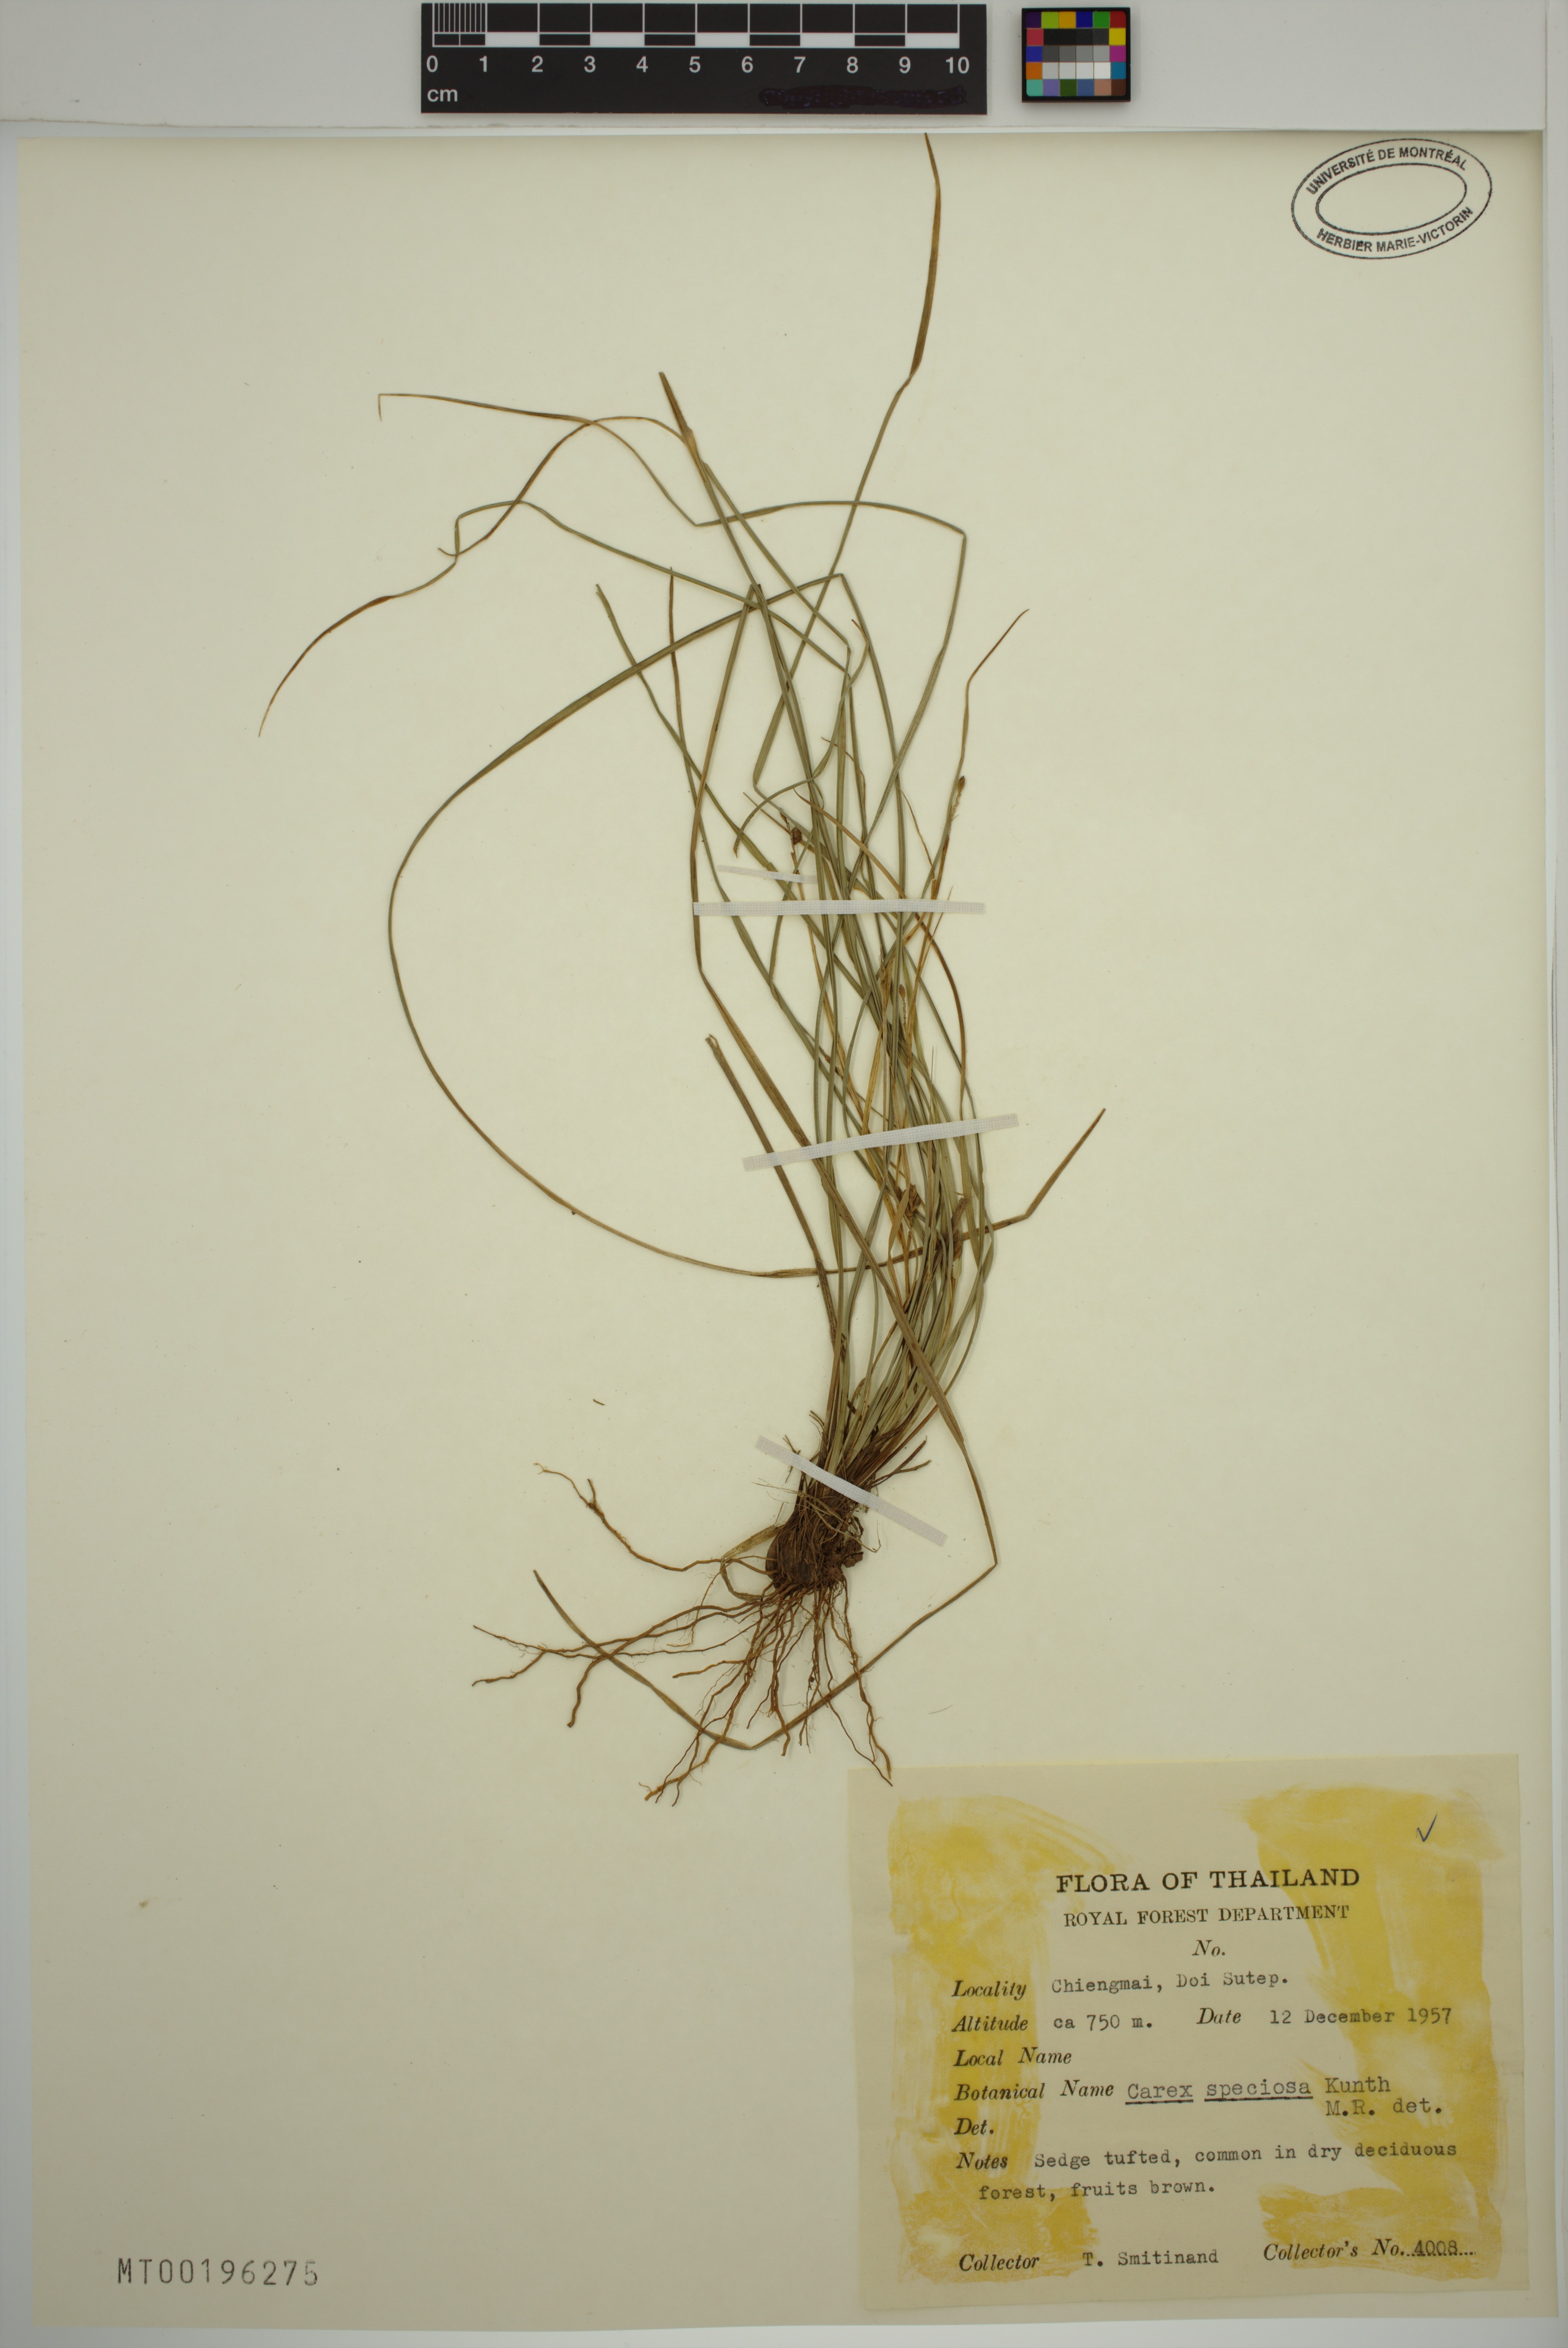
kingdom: Plantae
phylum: Tracheophyta
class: Liliopsida
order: Poales
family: Cyperaceae
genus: Carex
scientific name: Carex specifica
